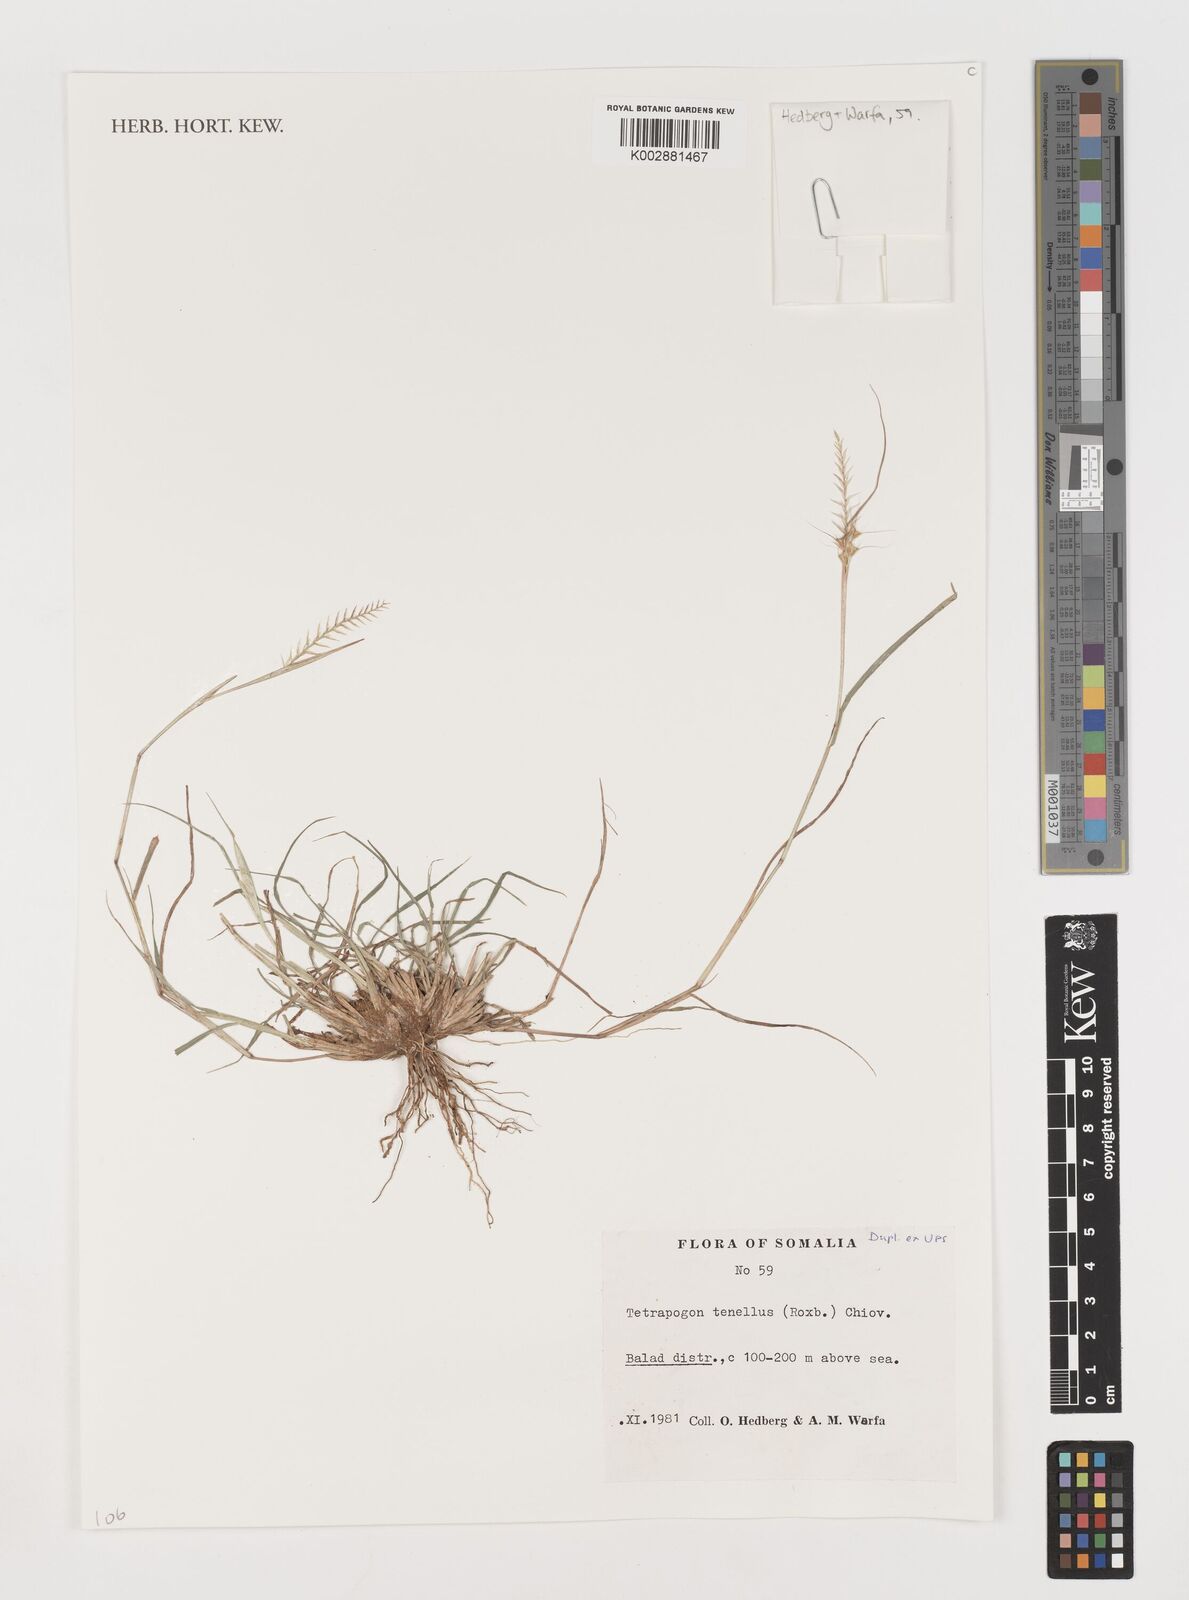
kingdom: Plantae
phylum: Tracheophyta
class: Liliopsida
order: Poales
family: Poaceae
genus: Tetrapogon
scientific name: Tetrapogon tenellus
